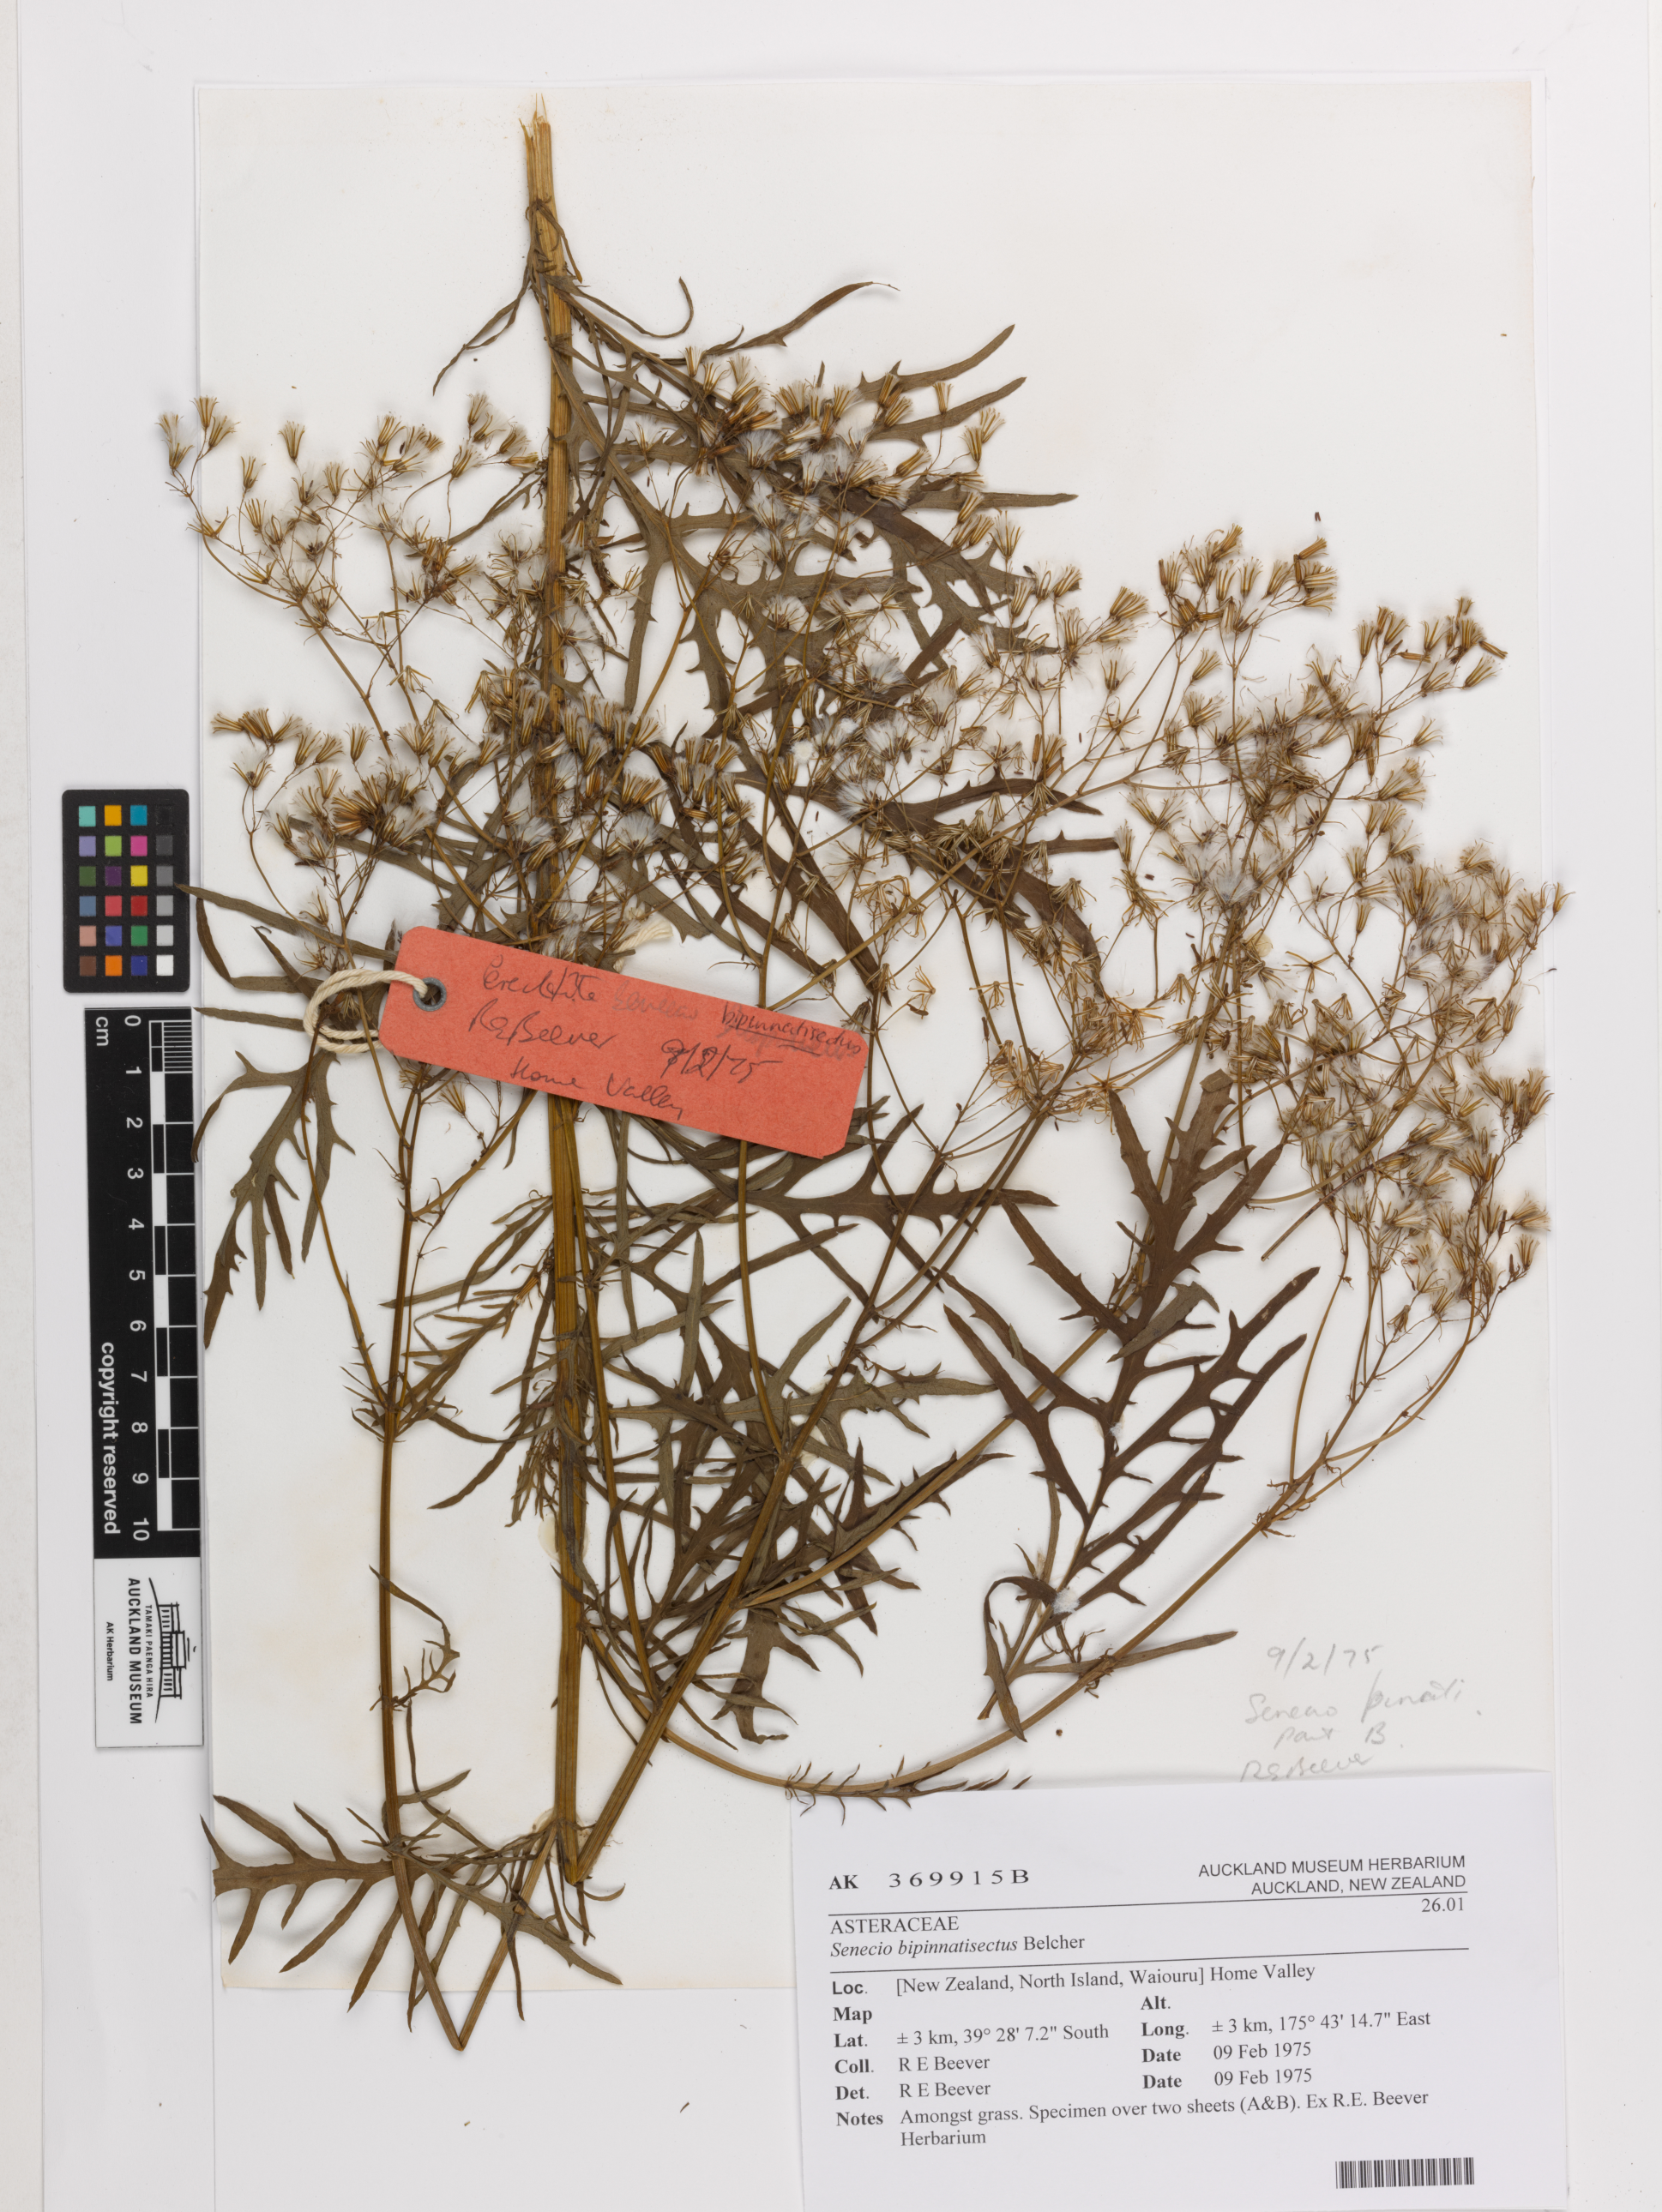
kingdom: Plantae
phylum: Tracheophyta
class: Magnoliopsida
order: Asterales
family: Asteraceae
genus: Senecio
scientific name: Senecio bipinnatisectus
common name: Australian fireweed
